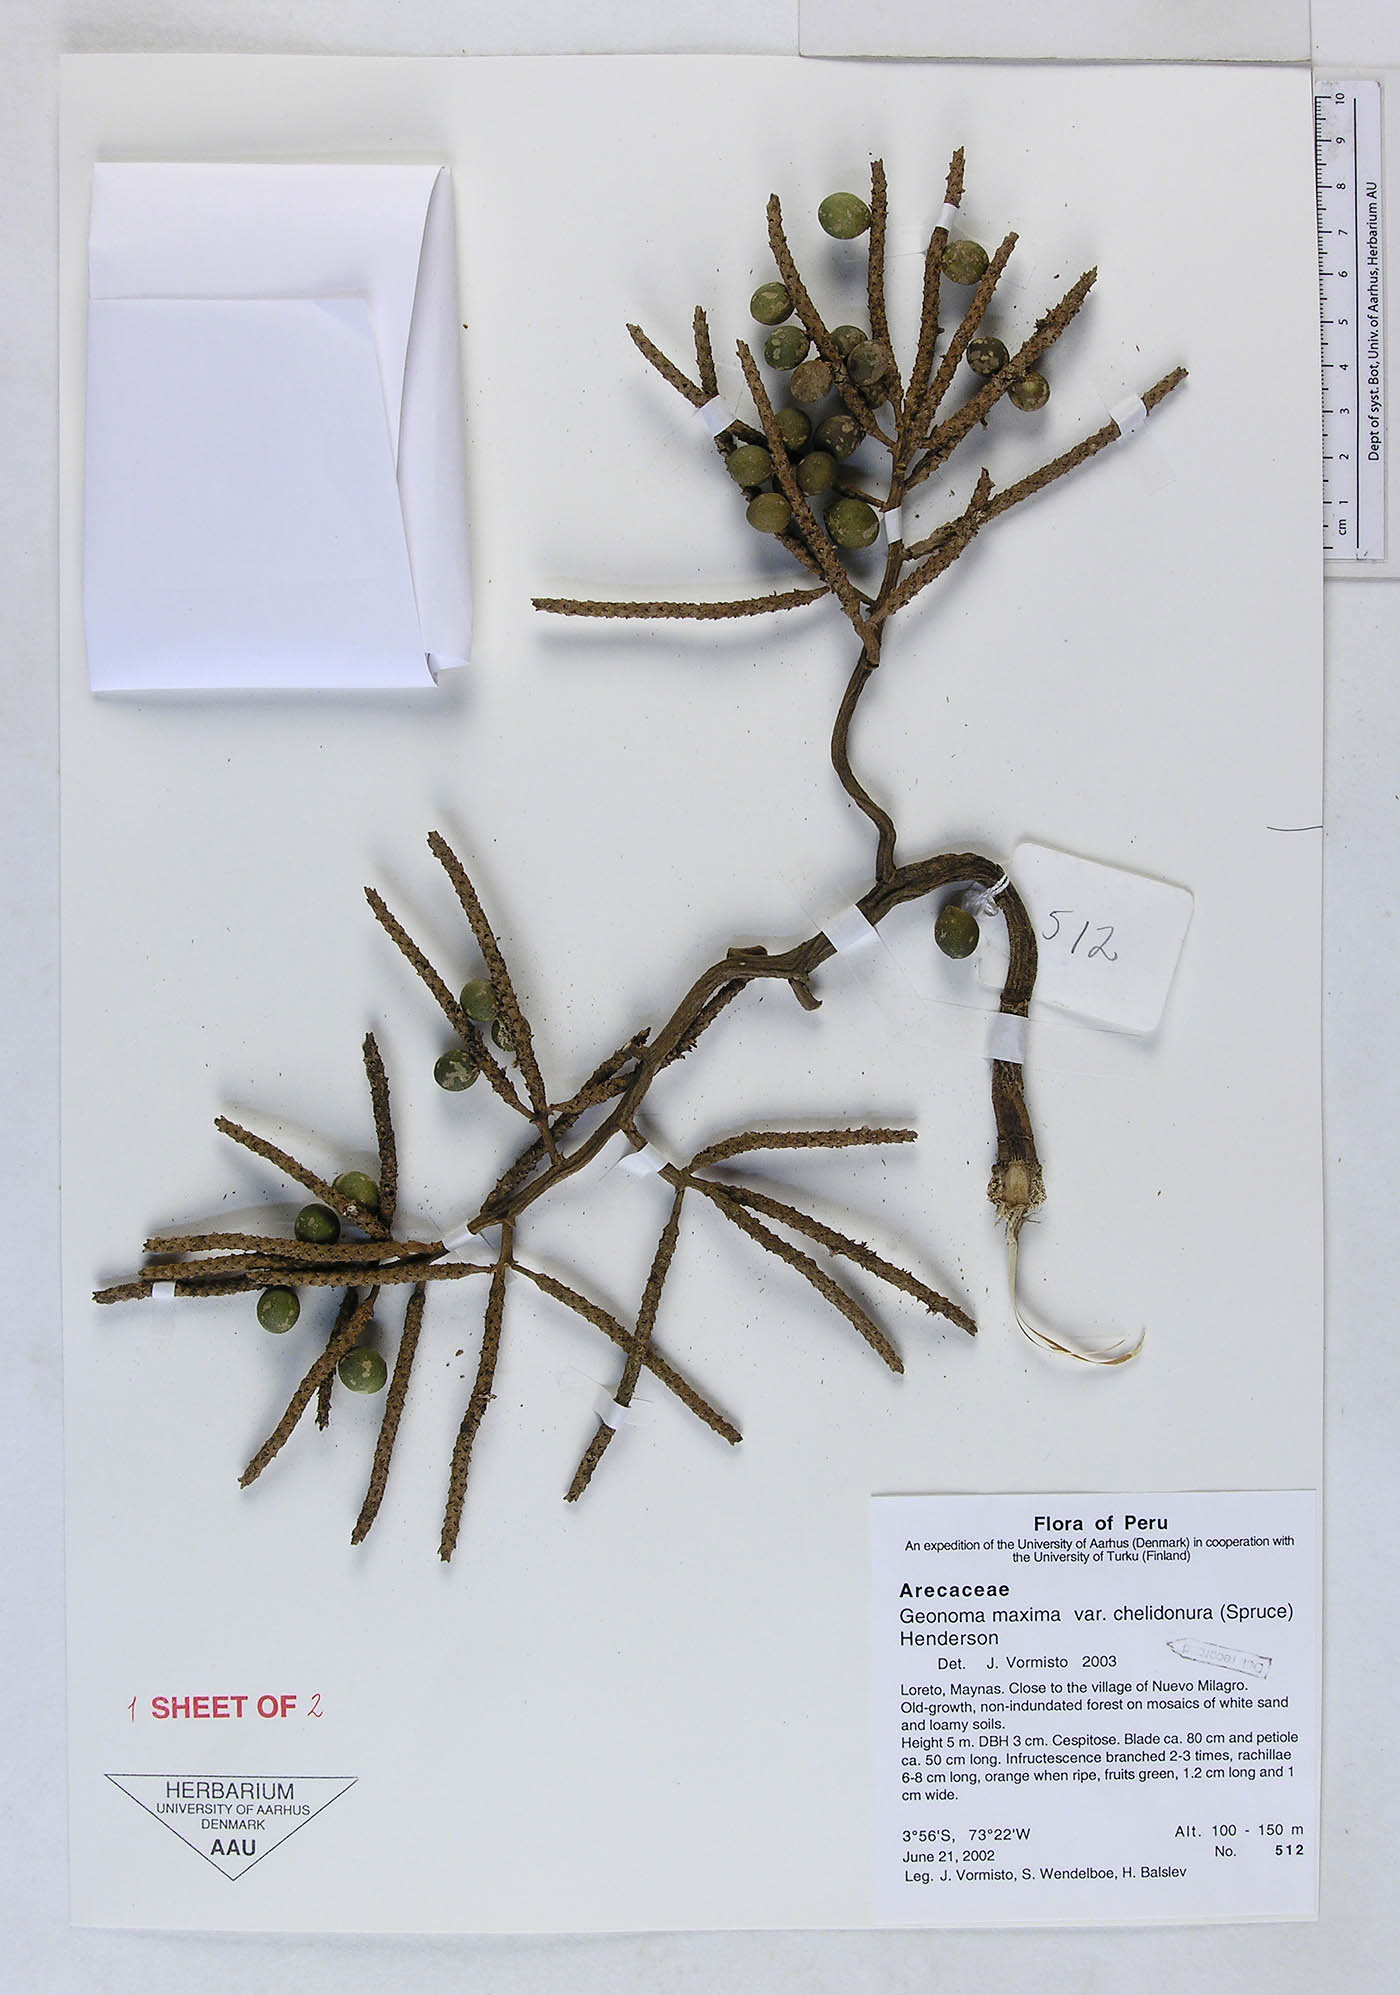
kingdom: Plantae
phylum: Tracheophyta
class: Liliopsida
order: Arecales
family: Arecaceae
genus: Geonoma
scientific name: Geonoma maxima
